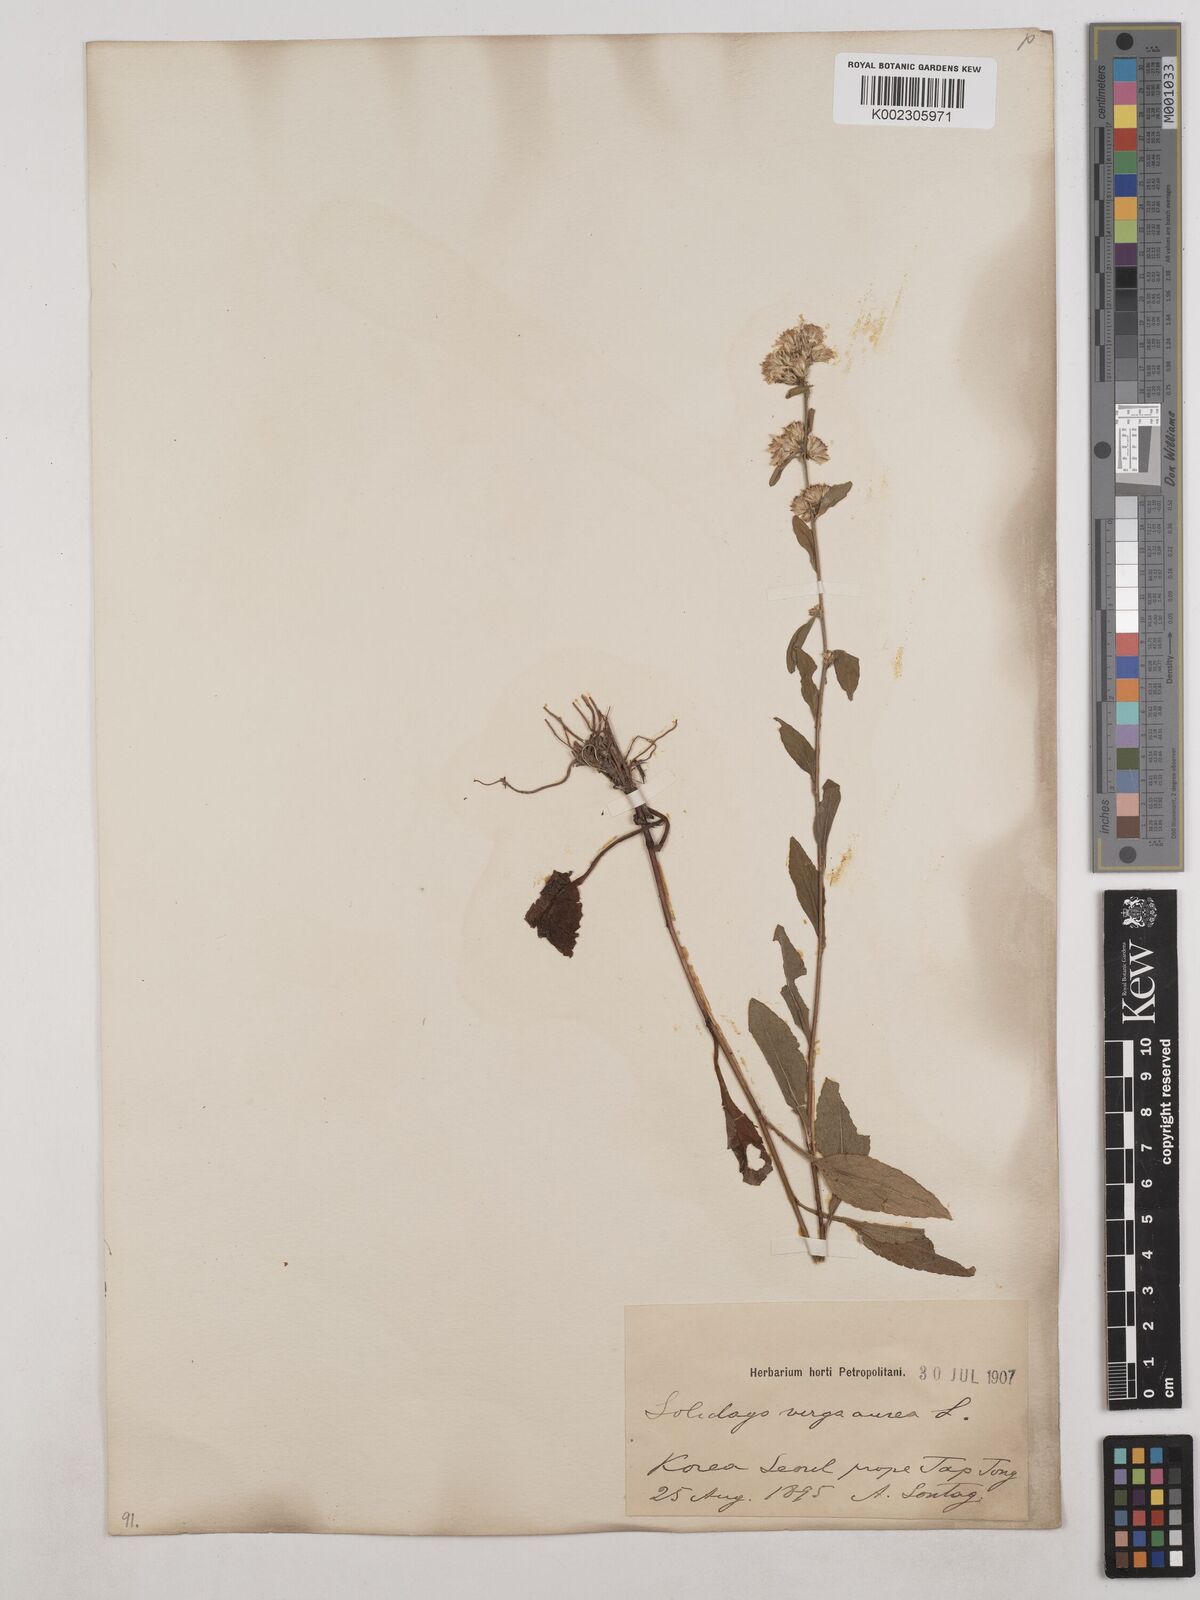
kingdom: Plantae
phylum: Tracheophyta
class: Magnoliopsida
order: Asterales
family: Asteraceae
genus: Solidago
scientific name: Solidago virgaurea
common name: Goldenrod
